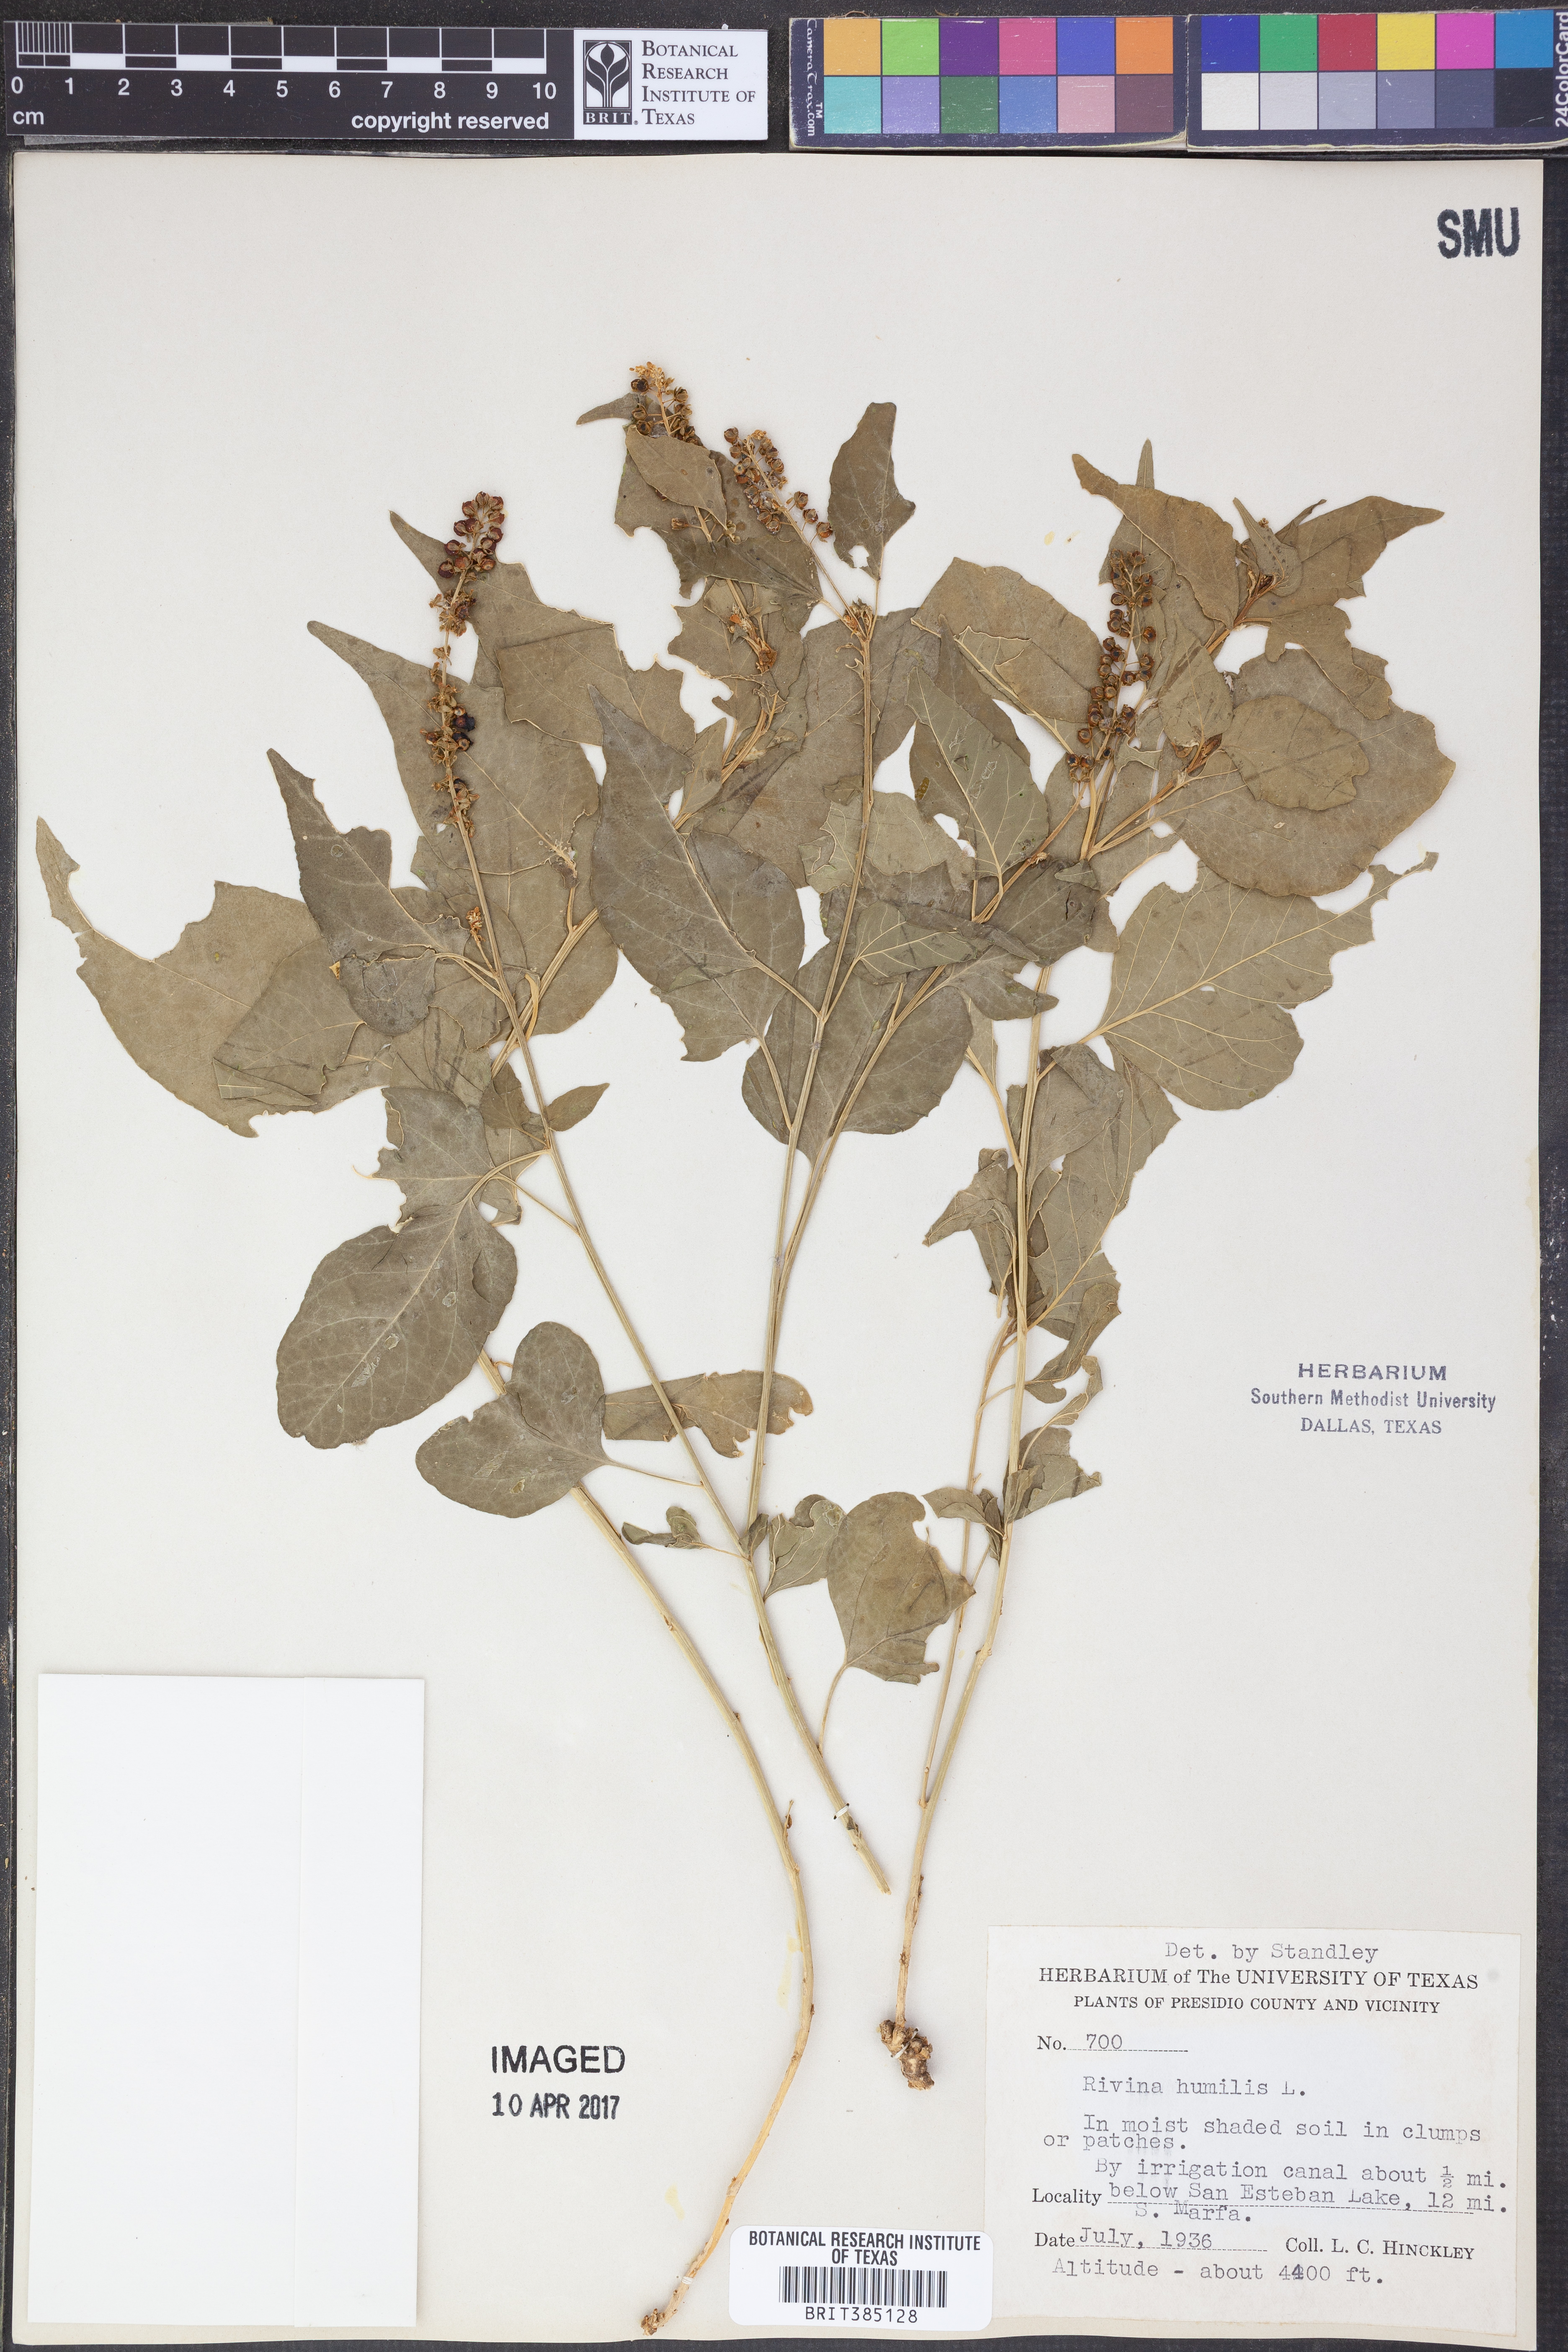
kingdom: Plantae
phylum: Tracheophyta
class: Magnoliopsida
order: Caryophyllales
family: Phytolaccaceae
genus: Rivina
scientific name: Rivina humilis
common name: Rougeplant
